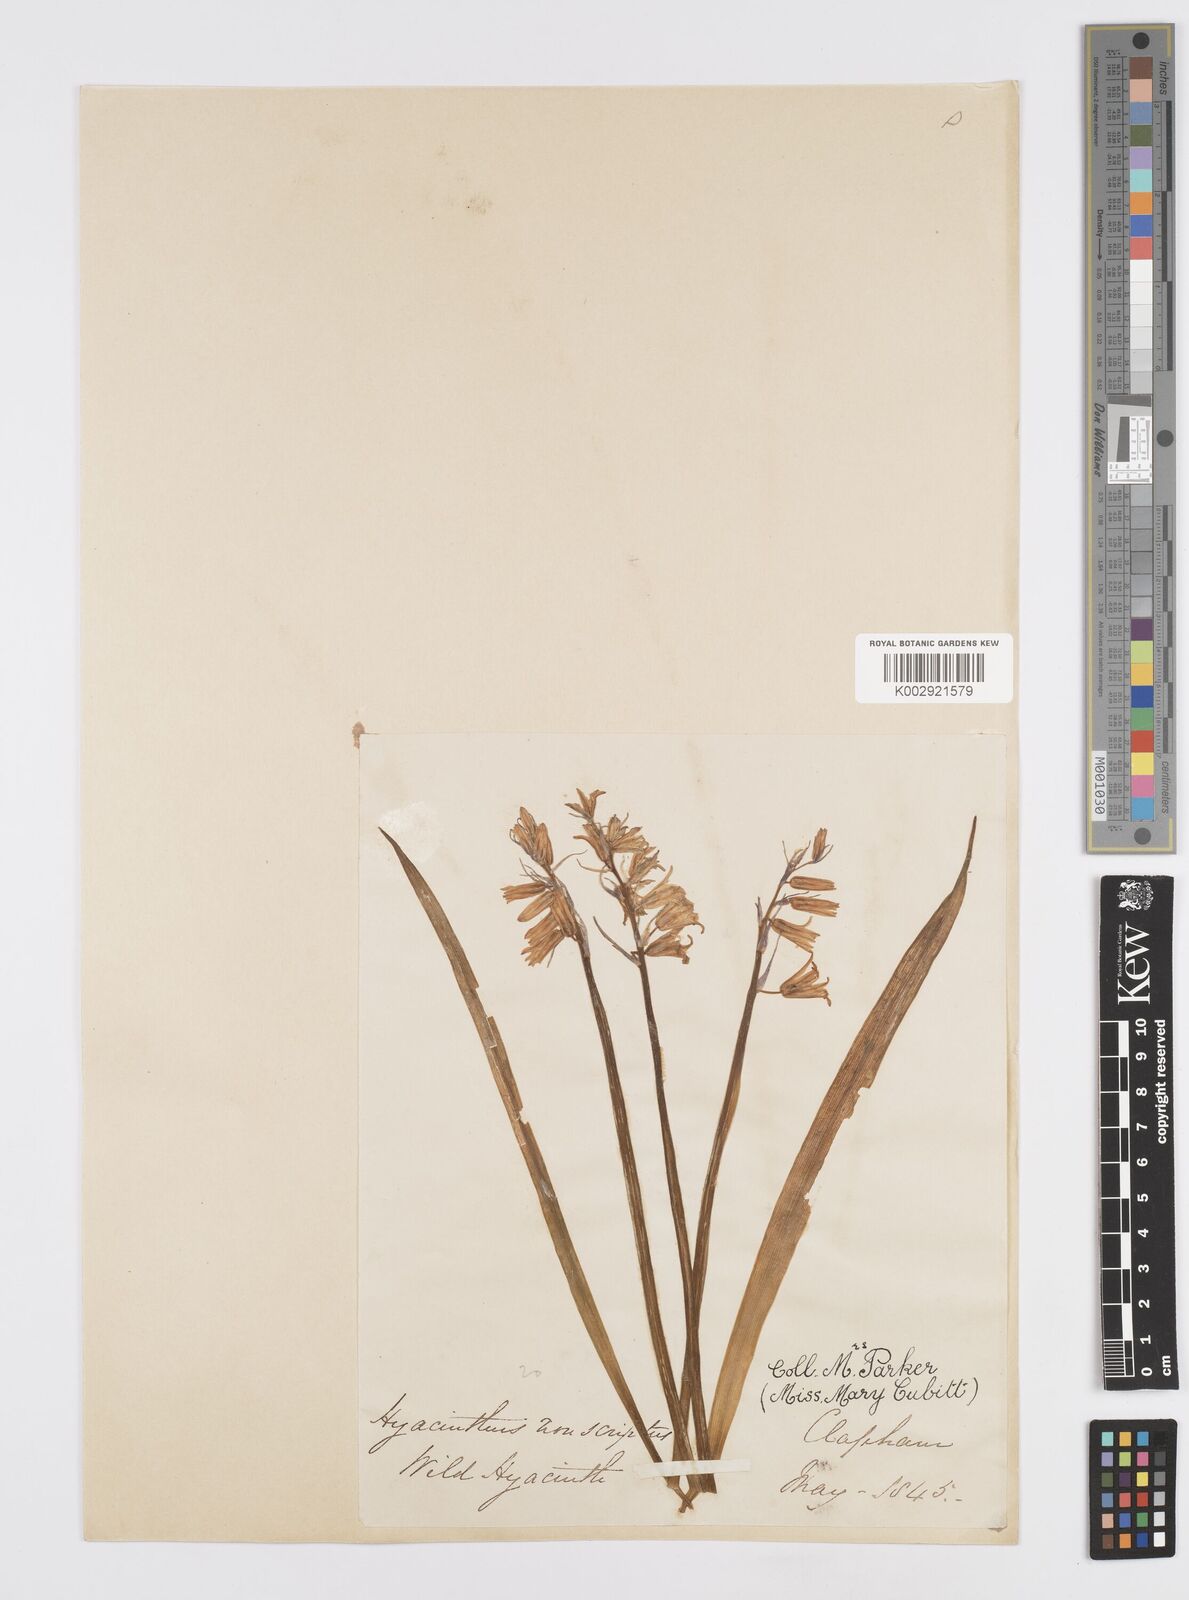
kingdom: Plantae
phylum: Tracheophyta
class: Liliopsida
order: Asparagales
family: Asparagaceae
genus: Hyacinthoides
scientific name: Hyacinthoides non-scripta
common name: Bluebell
